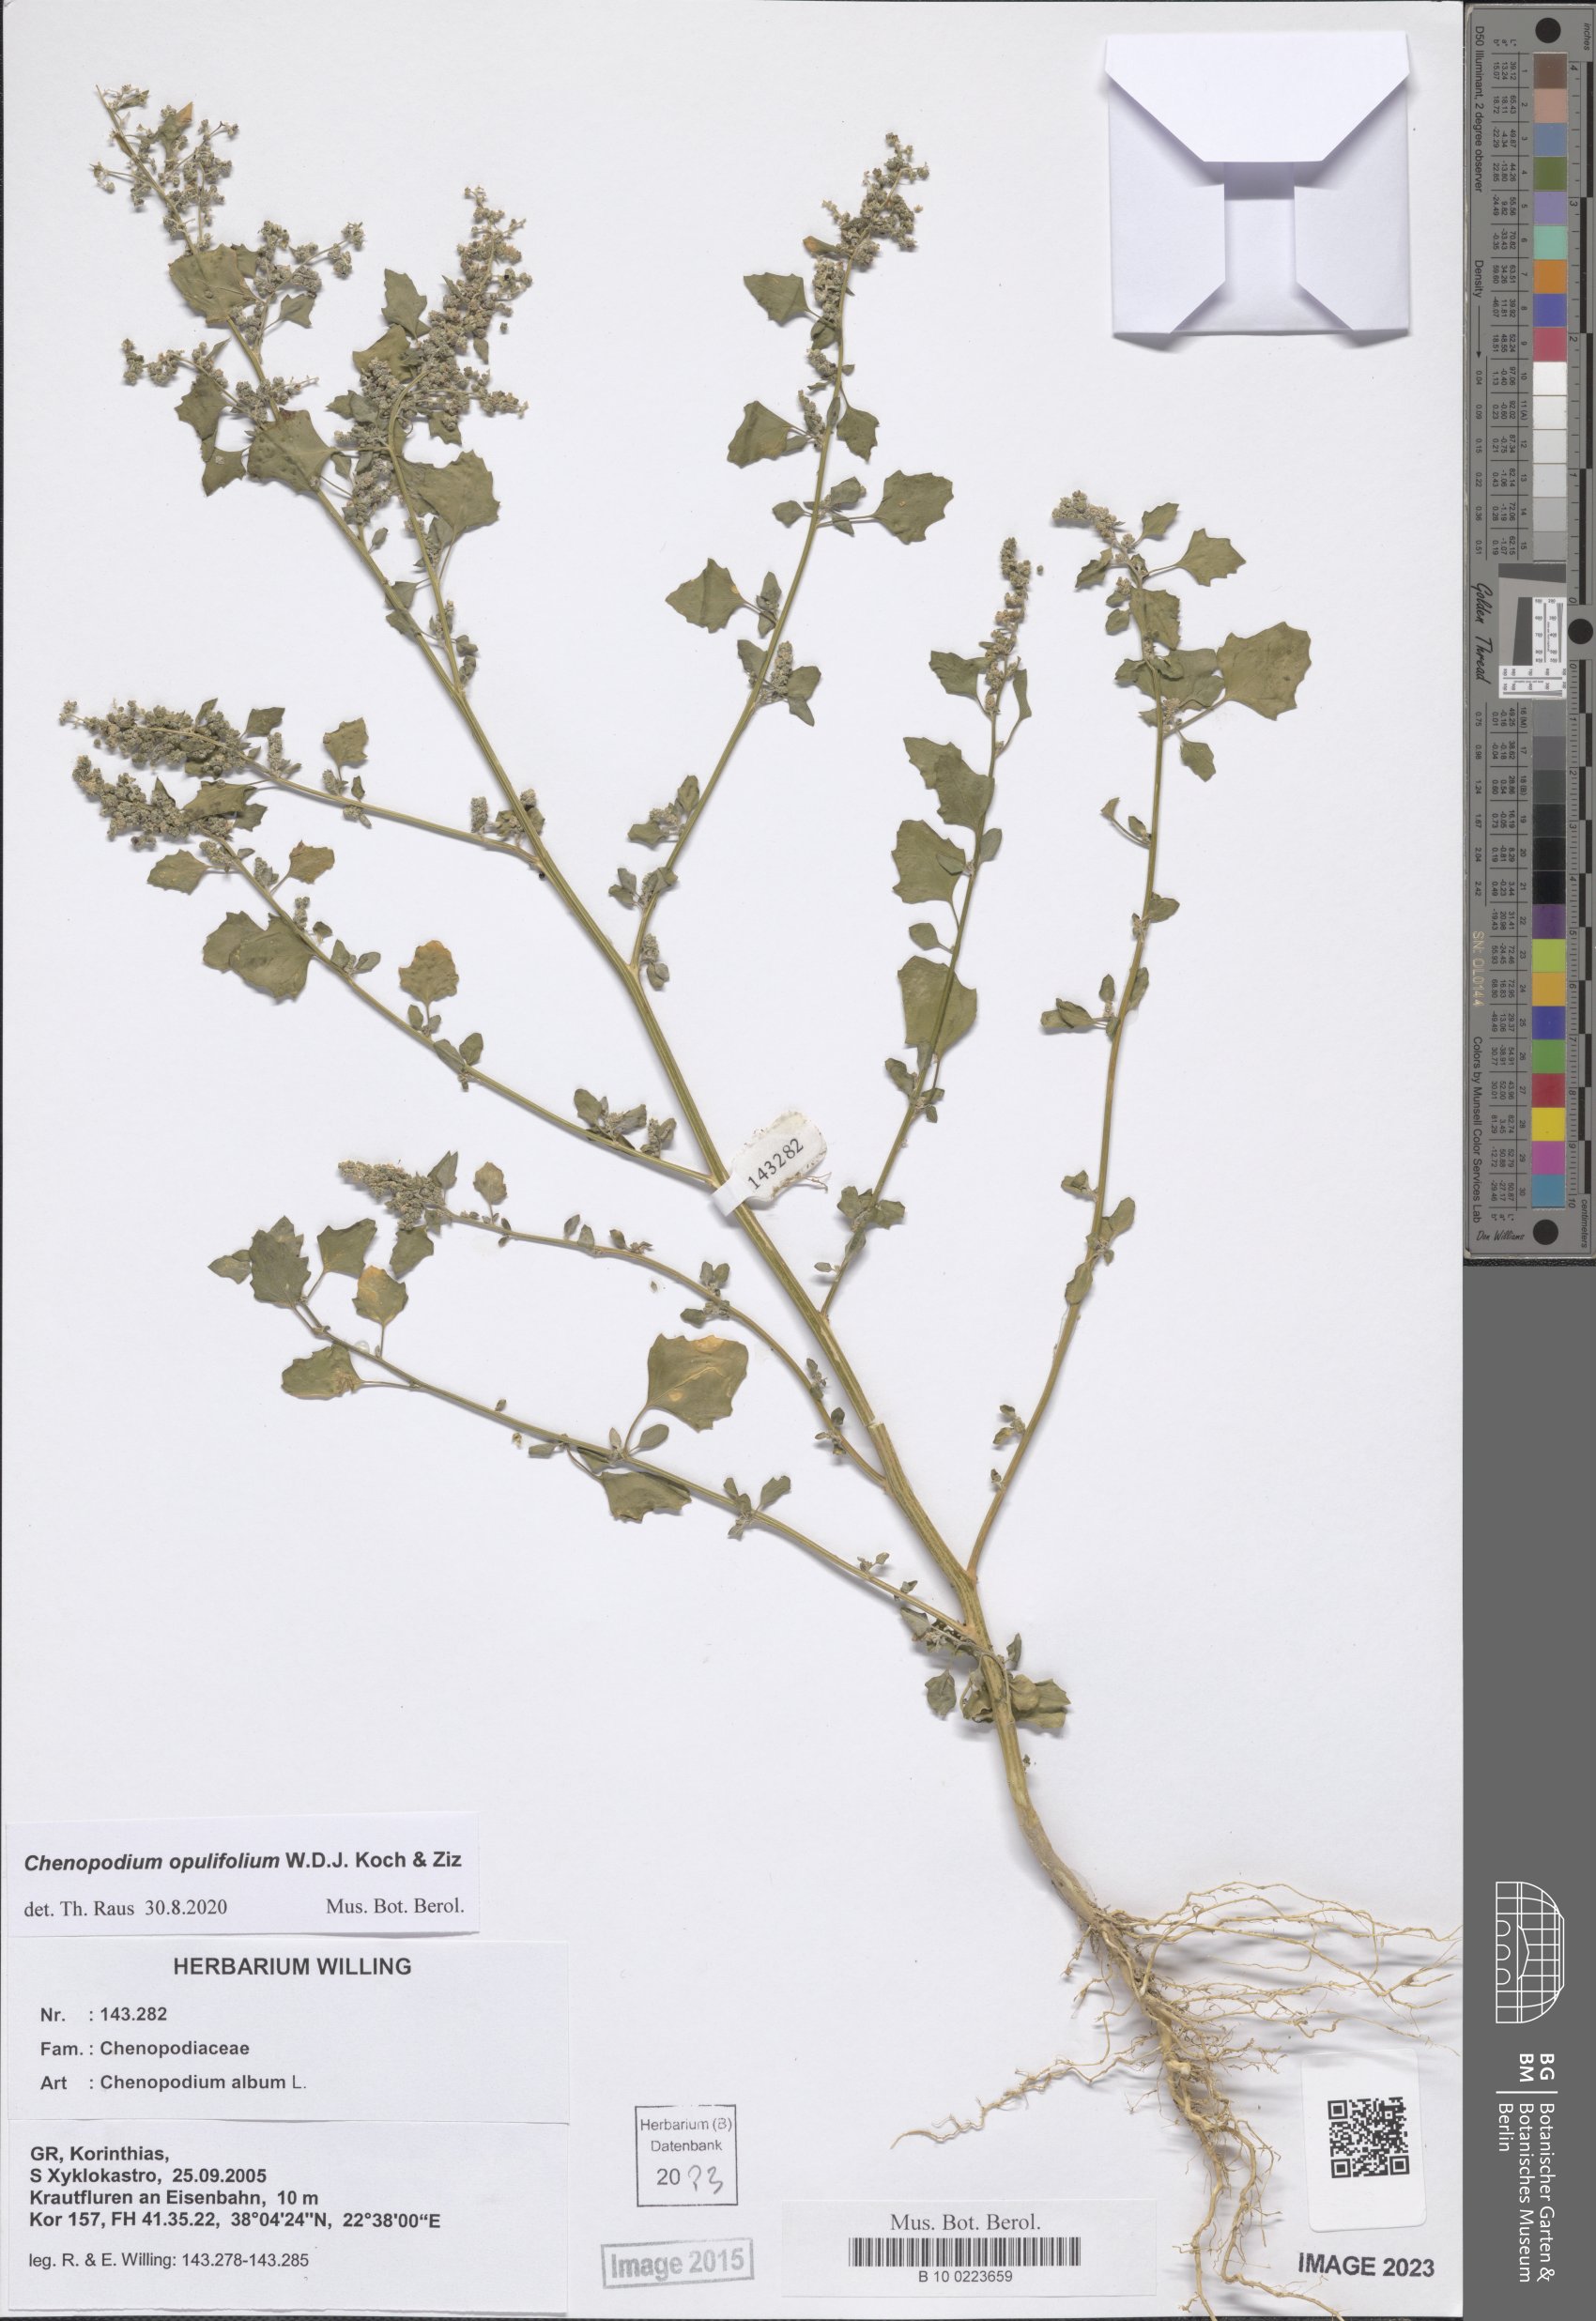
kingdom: Plantae
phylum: Tracheophyta
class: Magnoliopsida
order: Caryophyllales
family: Amaranthaceae
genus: Chenopodium
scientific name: Chenopodium opulifolium
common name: Grey goosefoot
